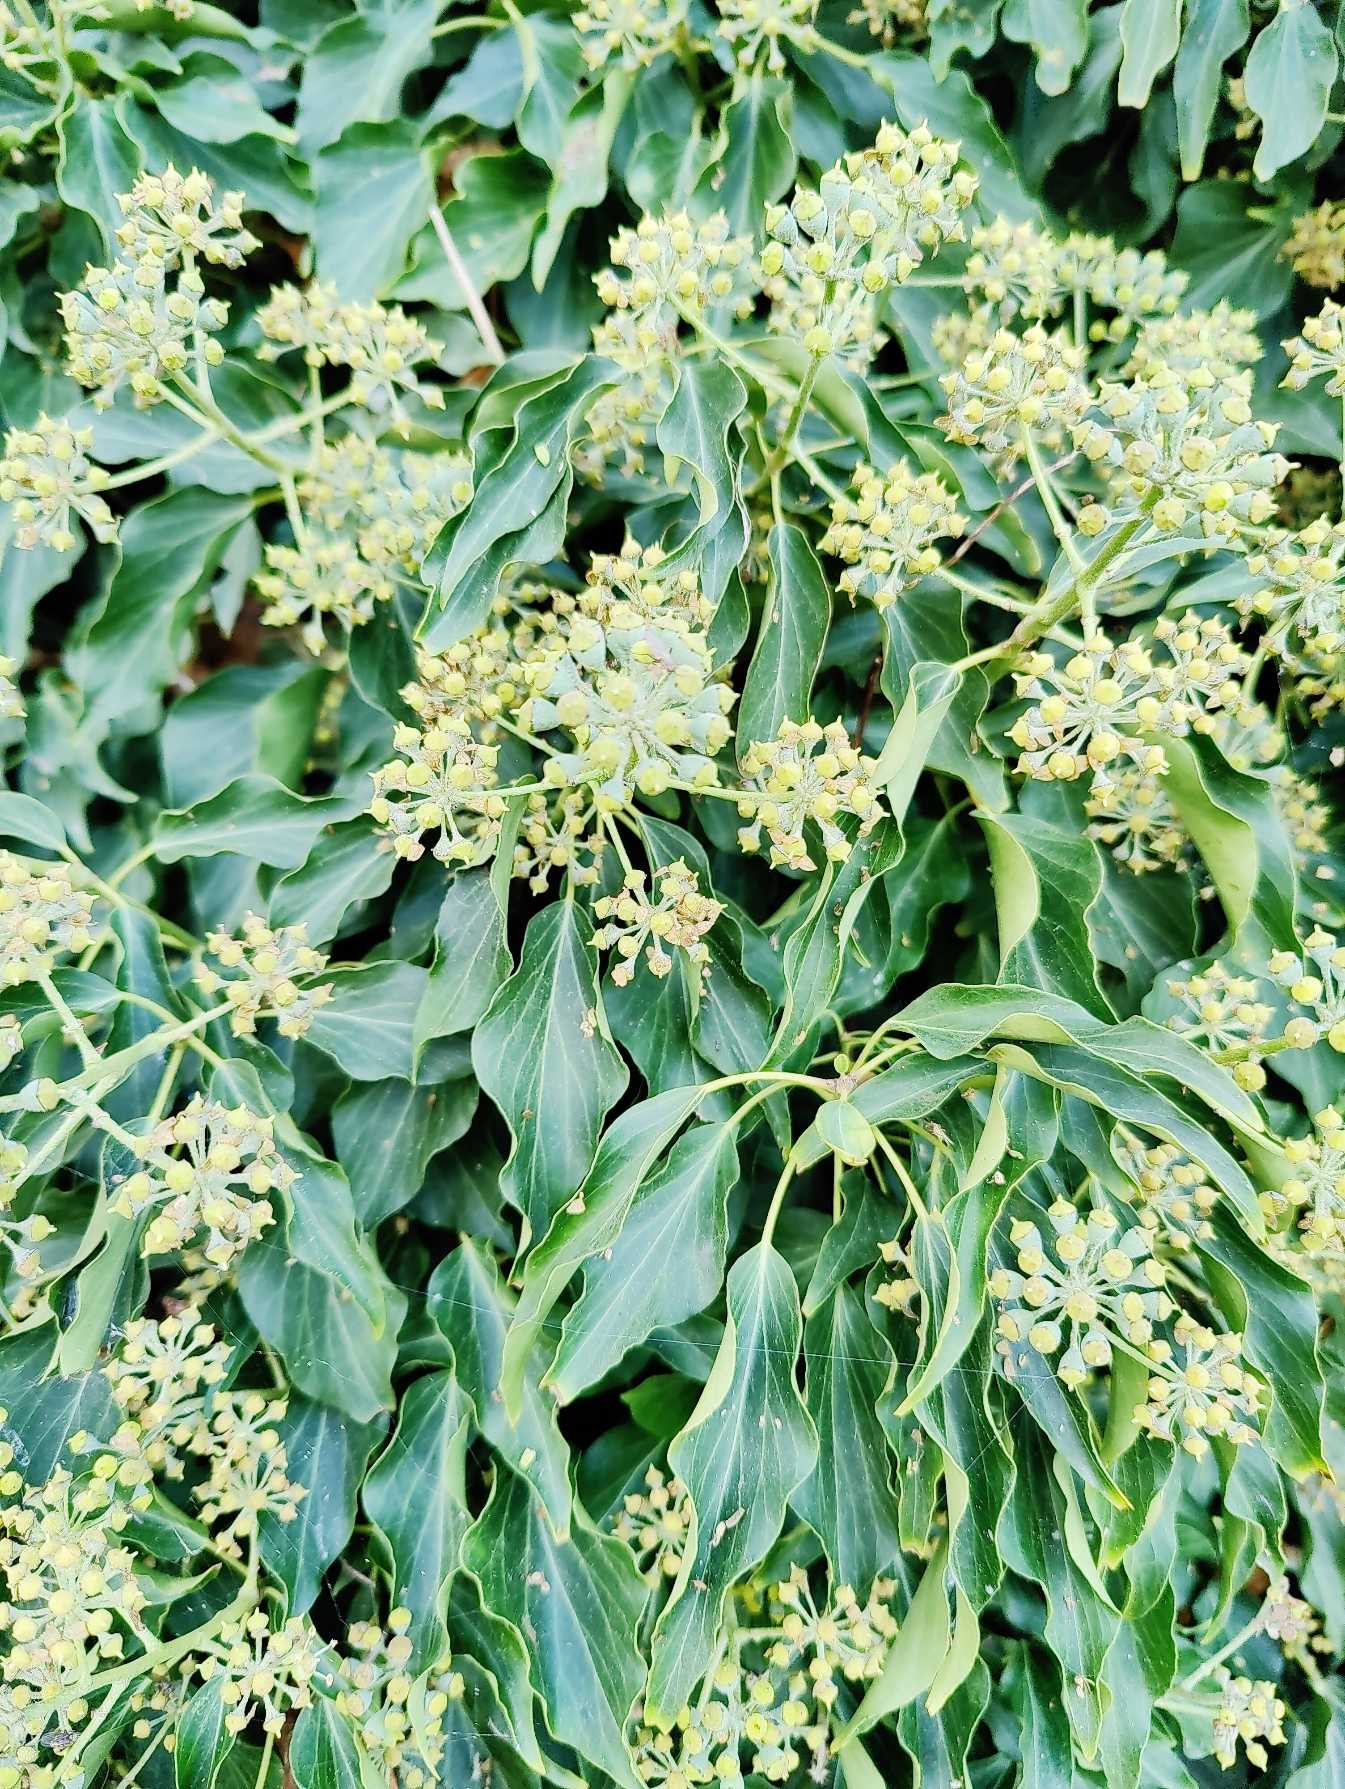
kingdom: Plantae
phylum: Tracheophyta
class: Magnoliopsida
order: Apiales
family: Araliaceae
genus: Hedera
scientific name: Hedera helix
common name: Vedbend
